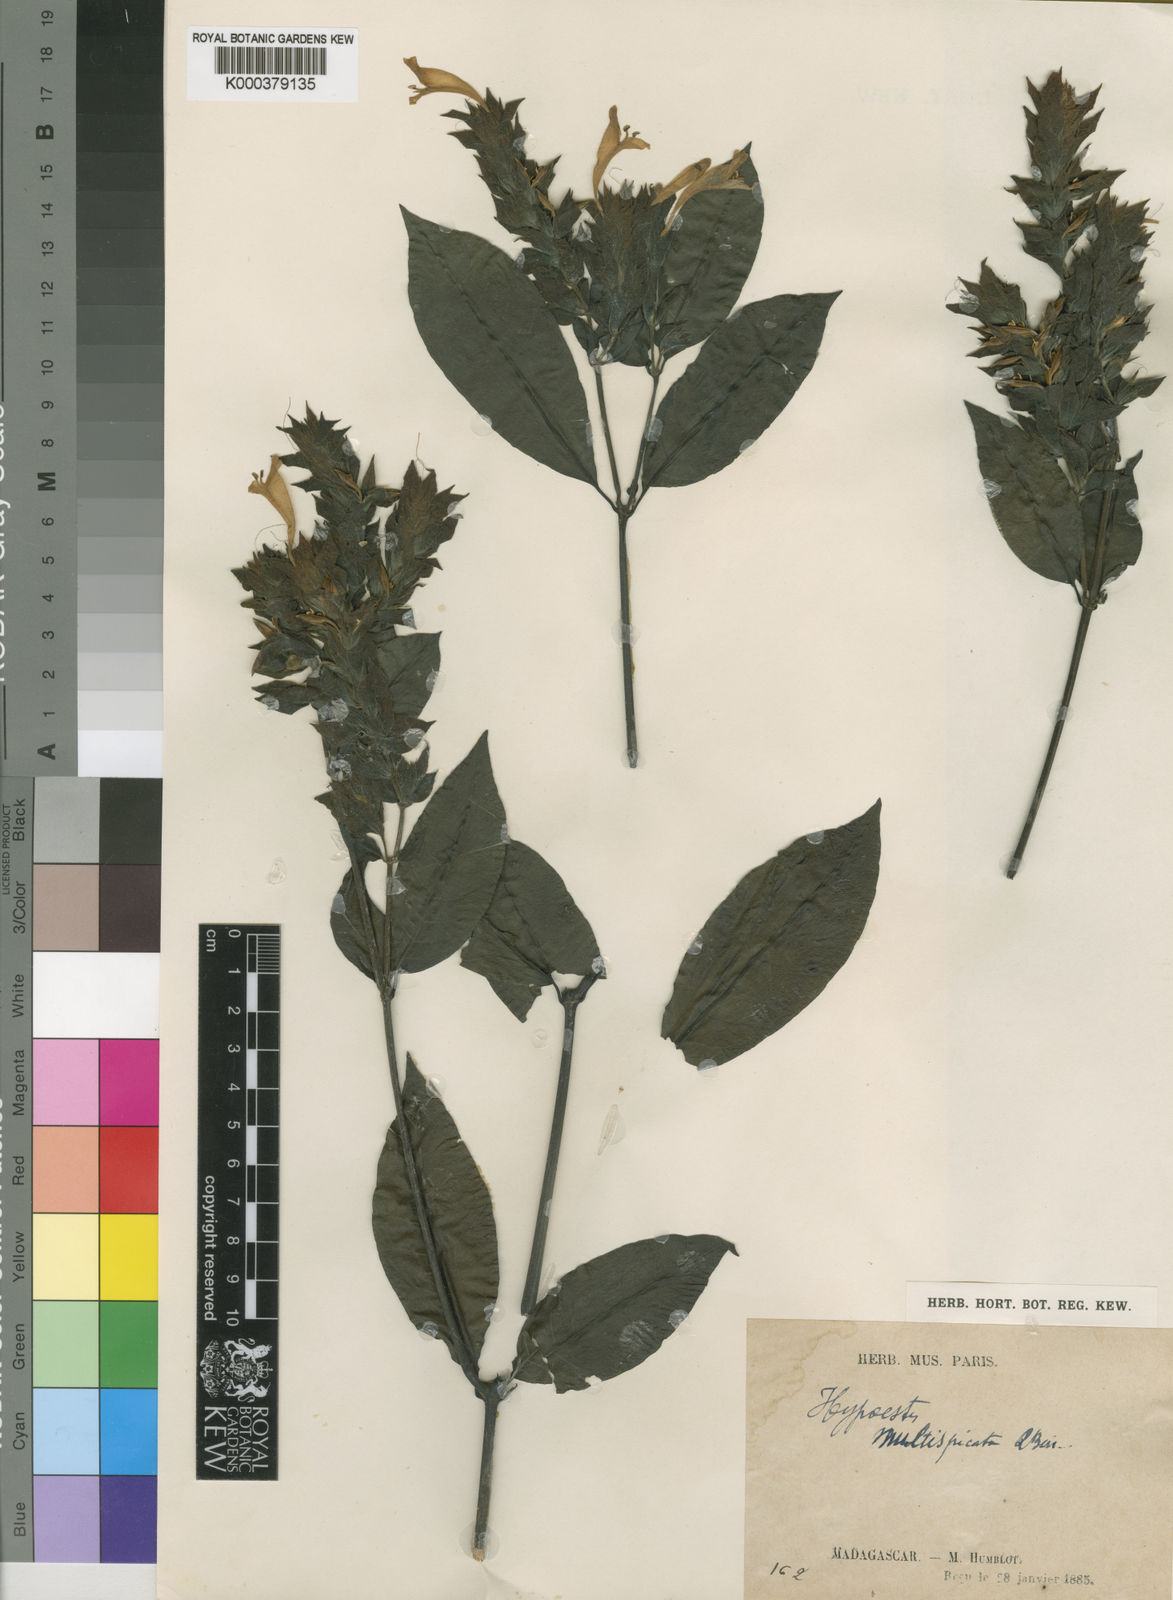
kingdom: Plantae
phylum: Tracheophyta
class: Magnoliopsida
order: Lamiales
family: Acanthaceae
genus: Hypoestes
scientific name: Hypoestes multispicata
